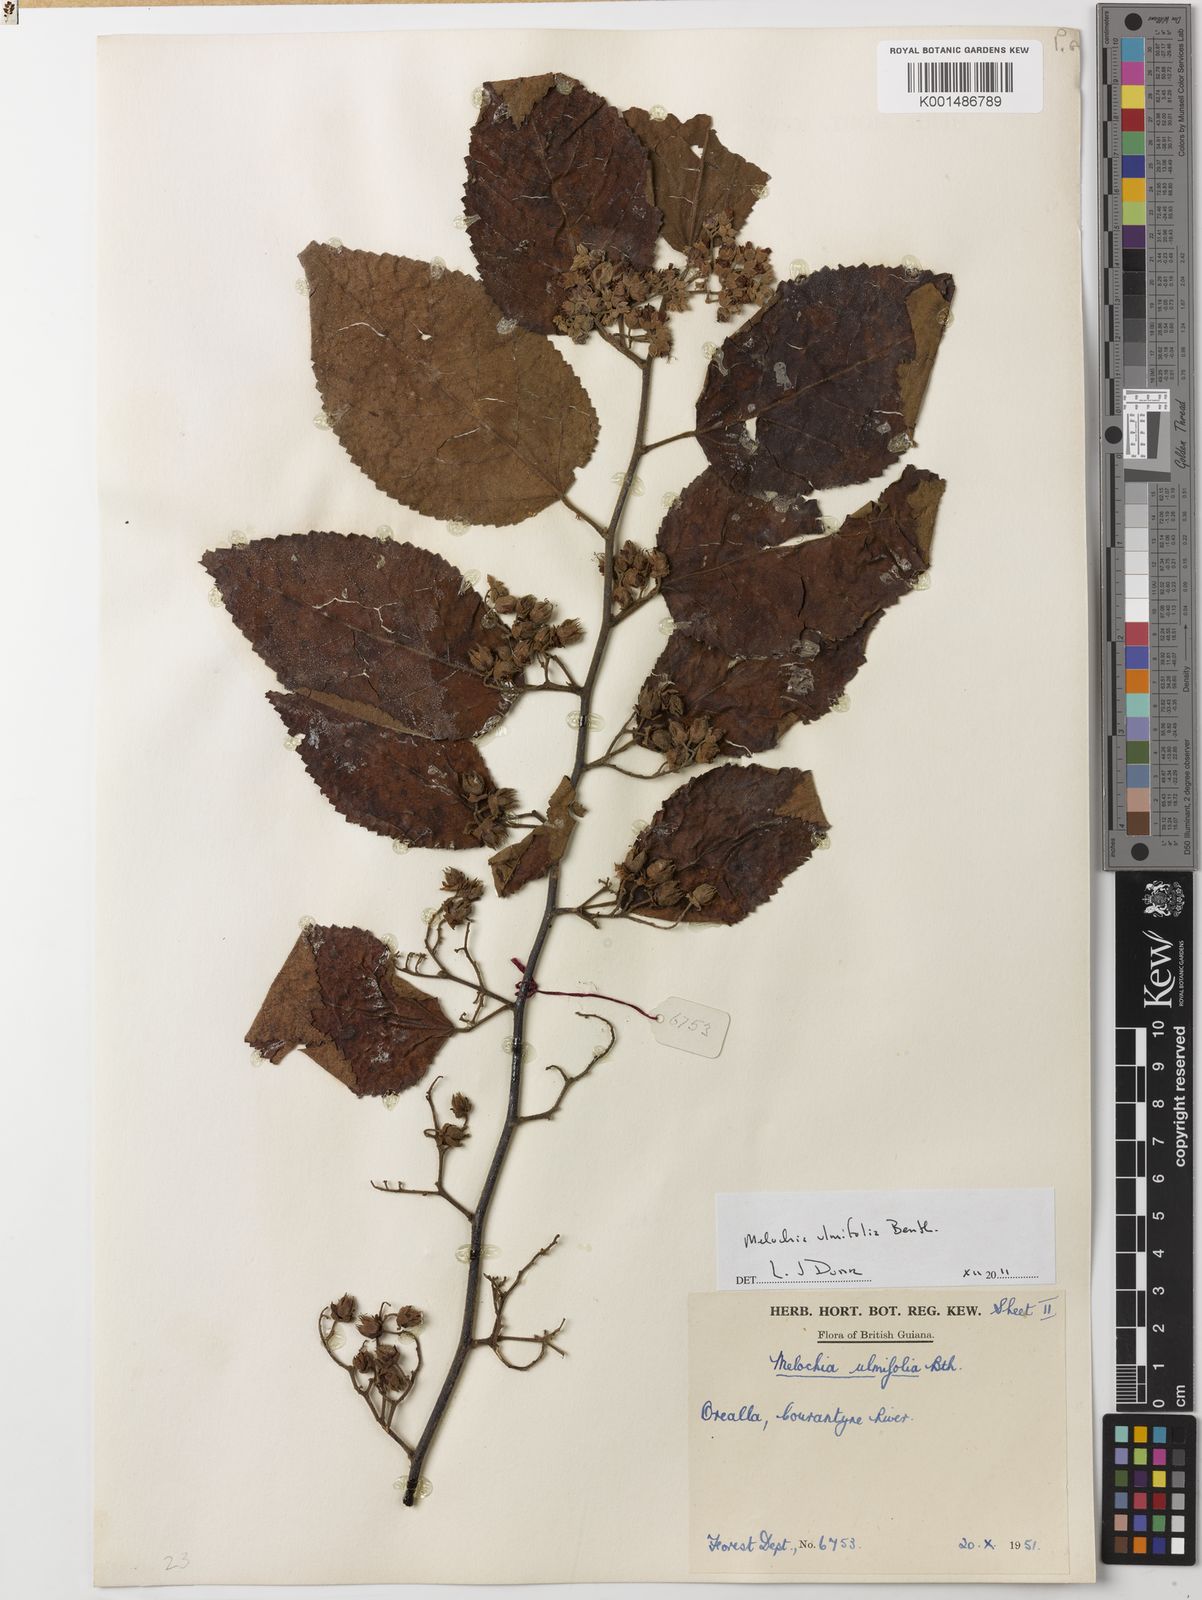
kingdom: Plantae
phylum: Tracheophyta
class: Magnoliopsida
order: Malvales
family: Malvaceae
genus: Melochia
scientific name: Melochia ulmifolia
